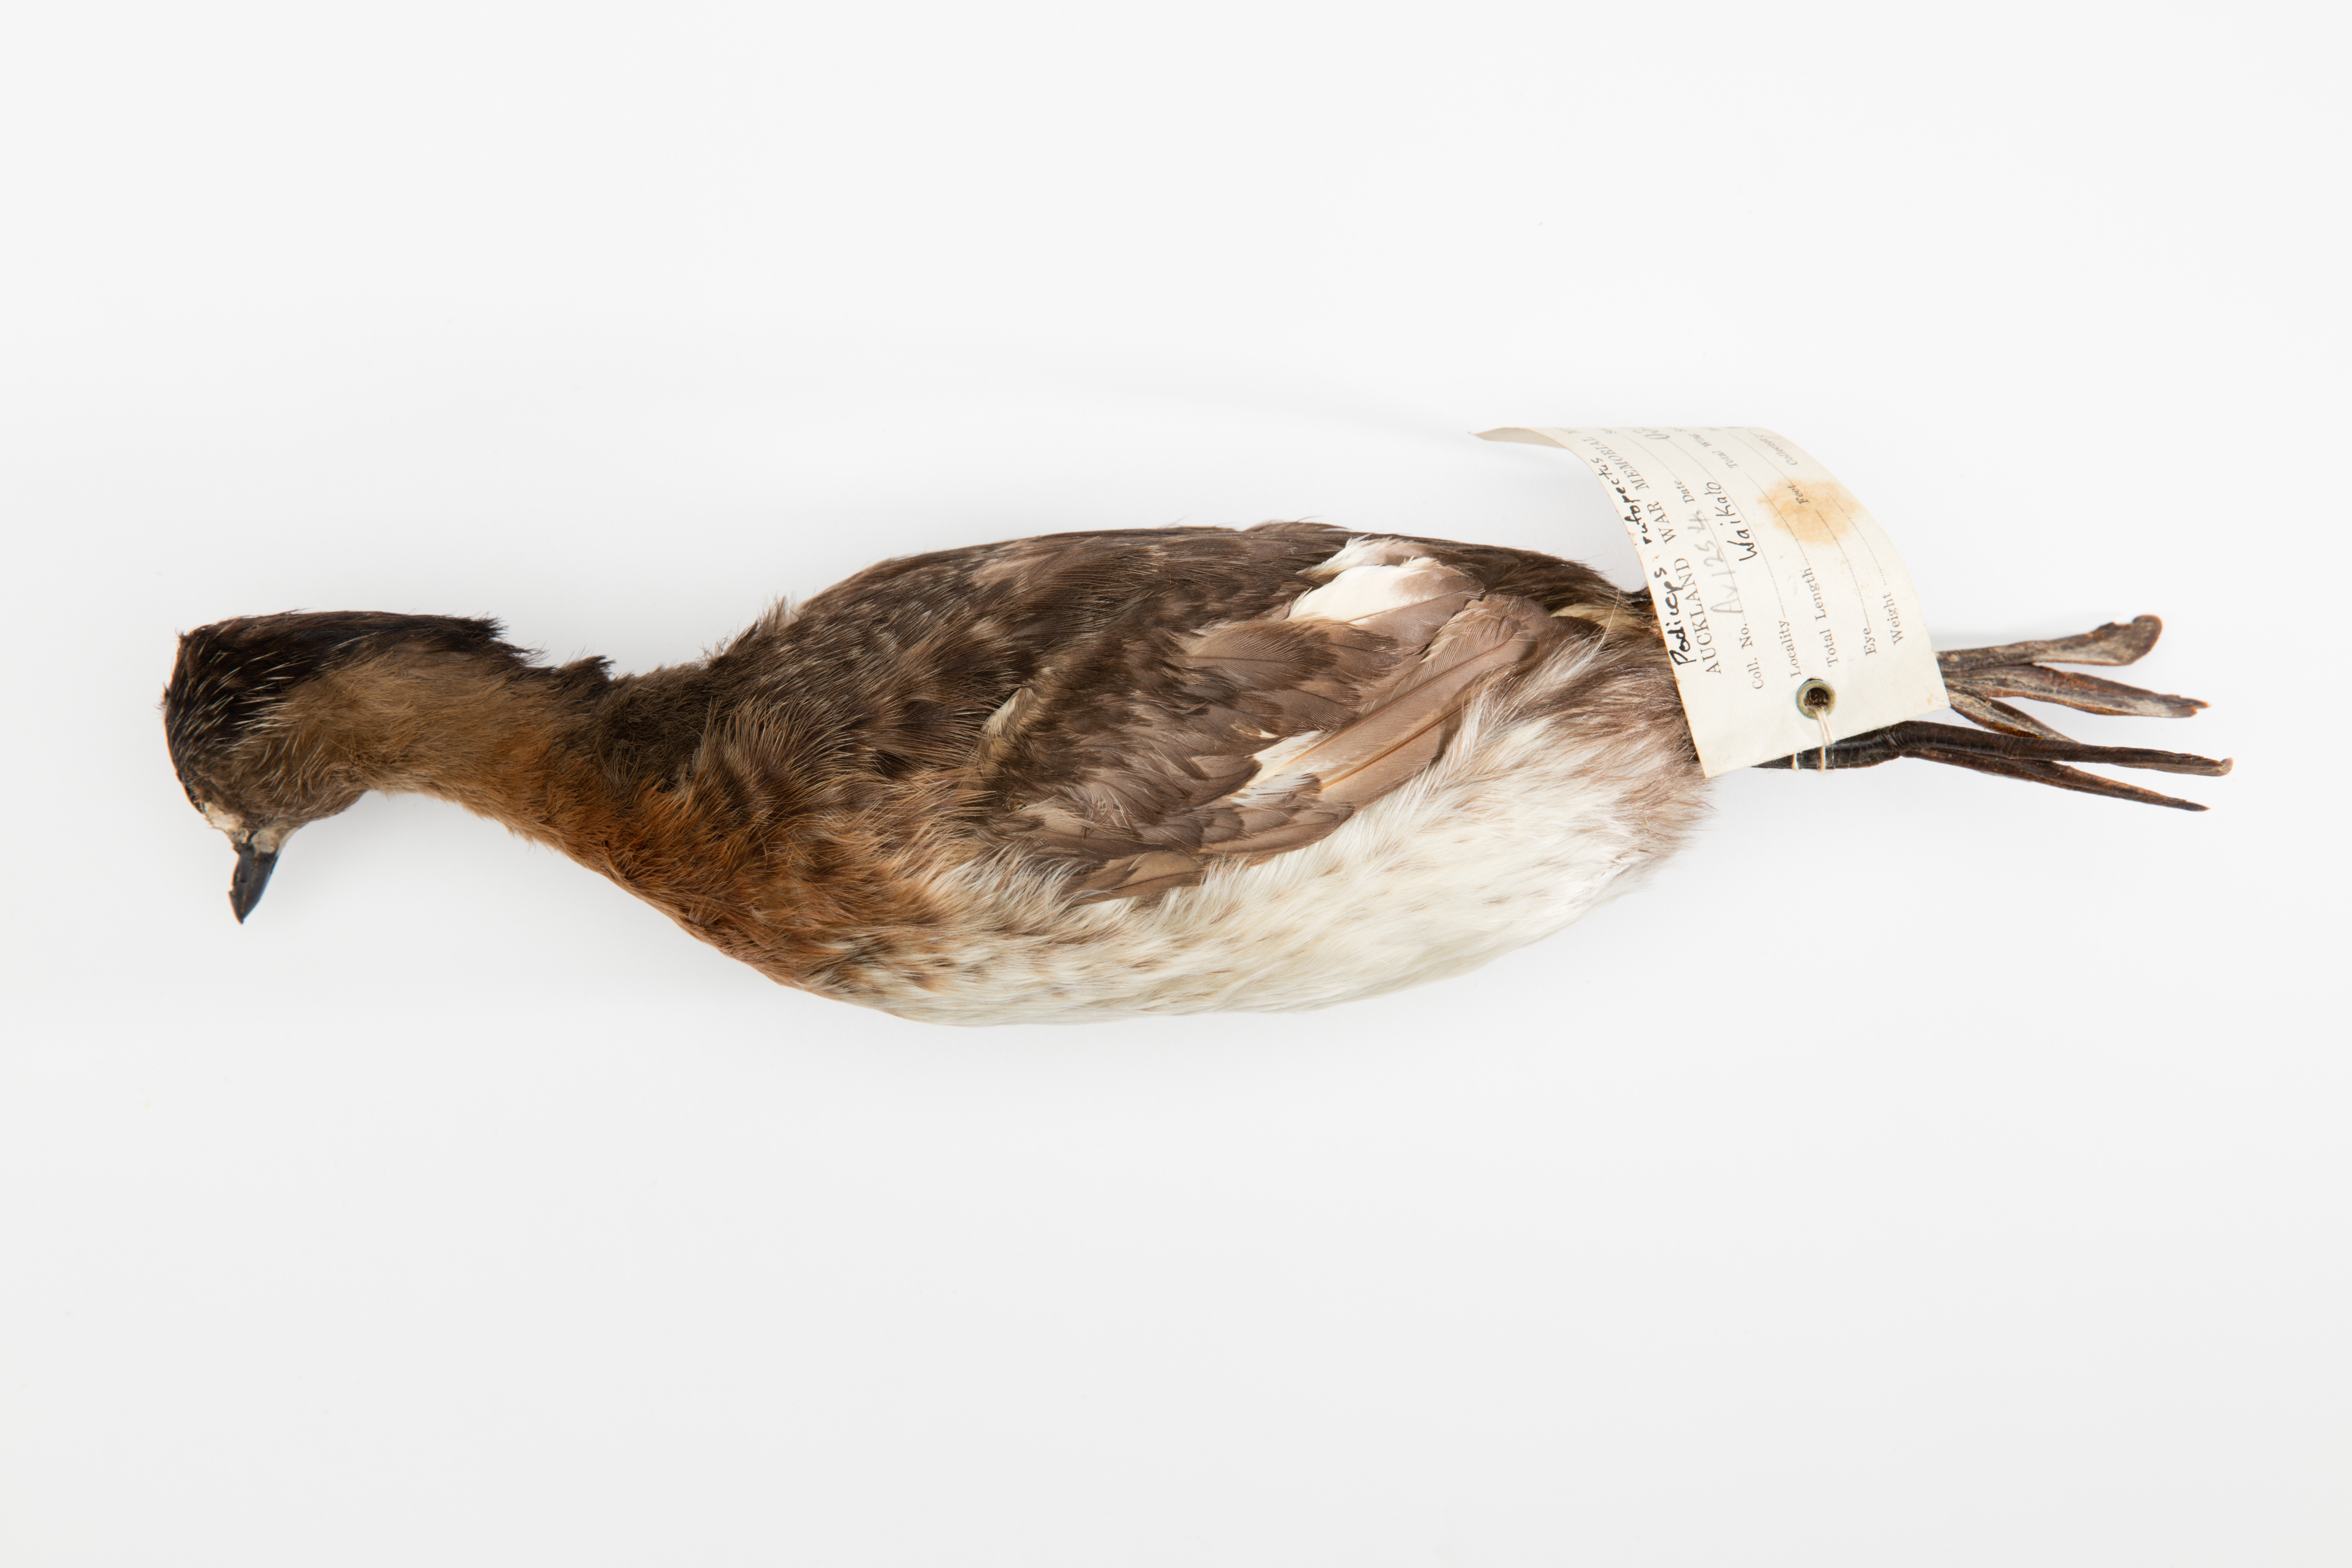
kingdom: Animalia
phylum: Chordata
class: Aves
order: Podicipediformes
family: Podicipedidae
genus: Poliocephalus
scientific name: Poliocephalus rufopectus
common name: New zealand grebe
